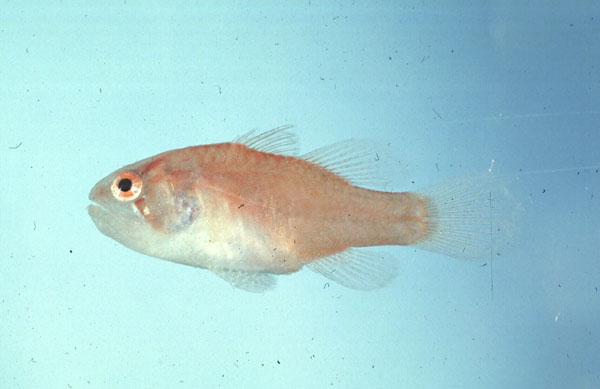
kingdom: Animalia
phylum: Chordata
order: Perciformes
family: Apogonidae
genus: Neamia
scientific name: Neamia octospina
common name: Eightspine cardinalfish
